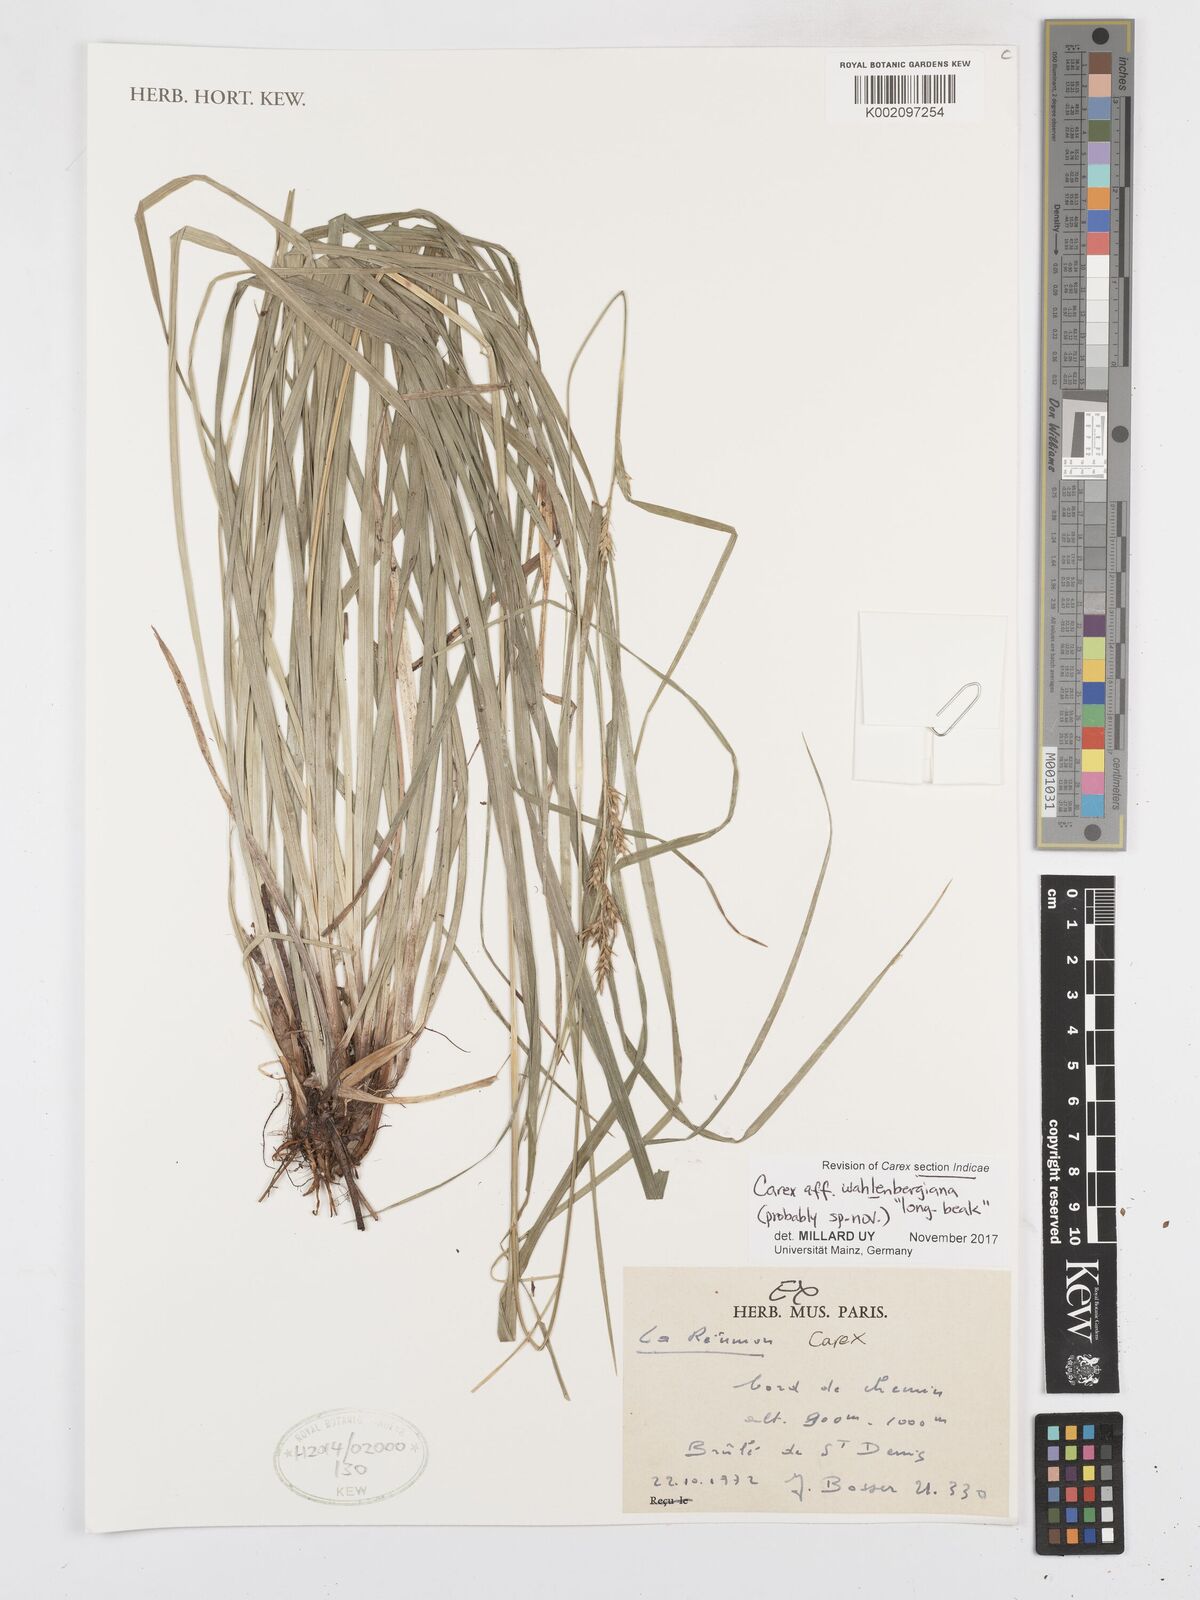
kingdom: Plantae
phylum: Tracheophyta
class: Liliopsida
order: Poales
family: Cyperaceae
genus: Carex
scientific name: Carex wahlenbergiana
